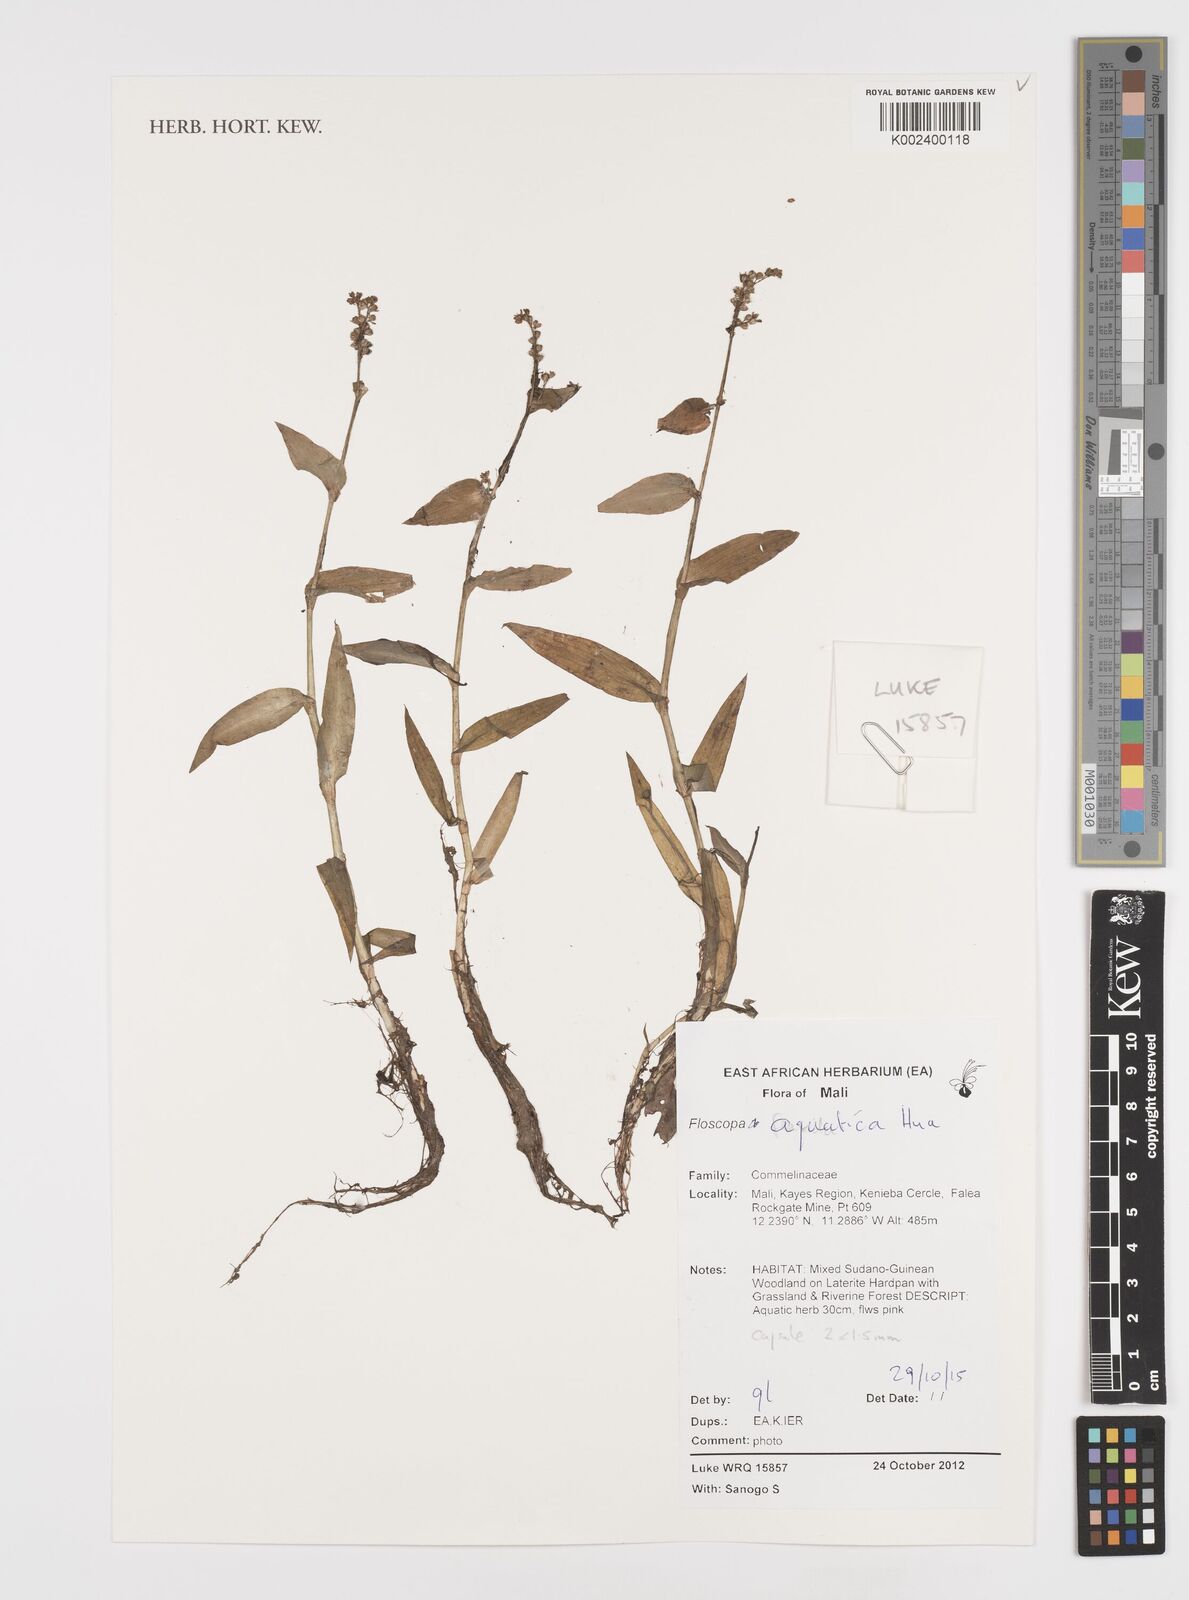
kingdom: Plantae
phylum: Tracheophyta
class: Liliopsida
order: Commelinales
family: Commelinaceae
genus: Floscopa
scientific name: Floscopa aquatica
